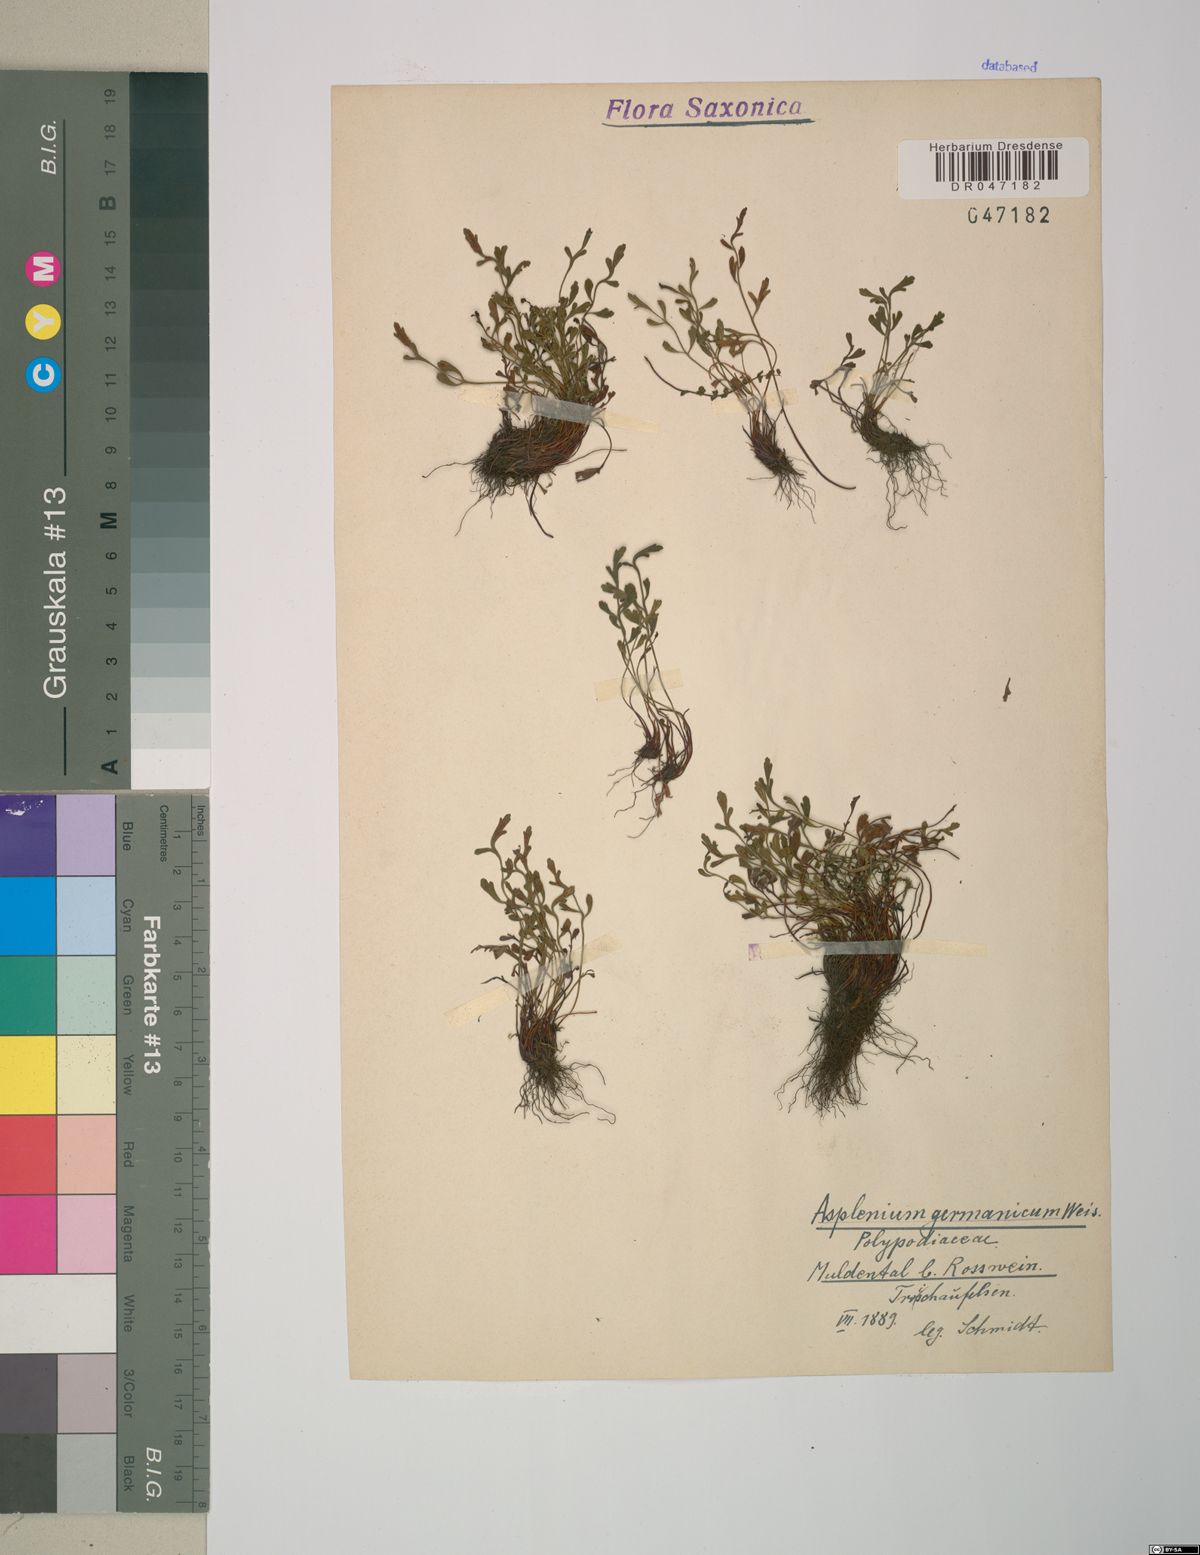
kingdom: Plantae
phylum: Tracheophyta
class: Polypodiopsida
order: Polypodiales
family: Aspleniaceae
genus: Asplenium
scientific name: Asplenium
